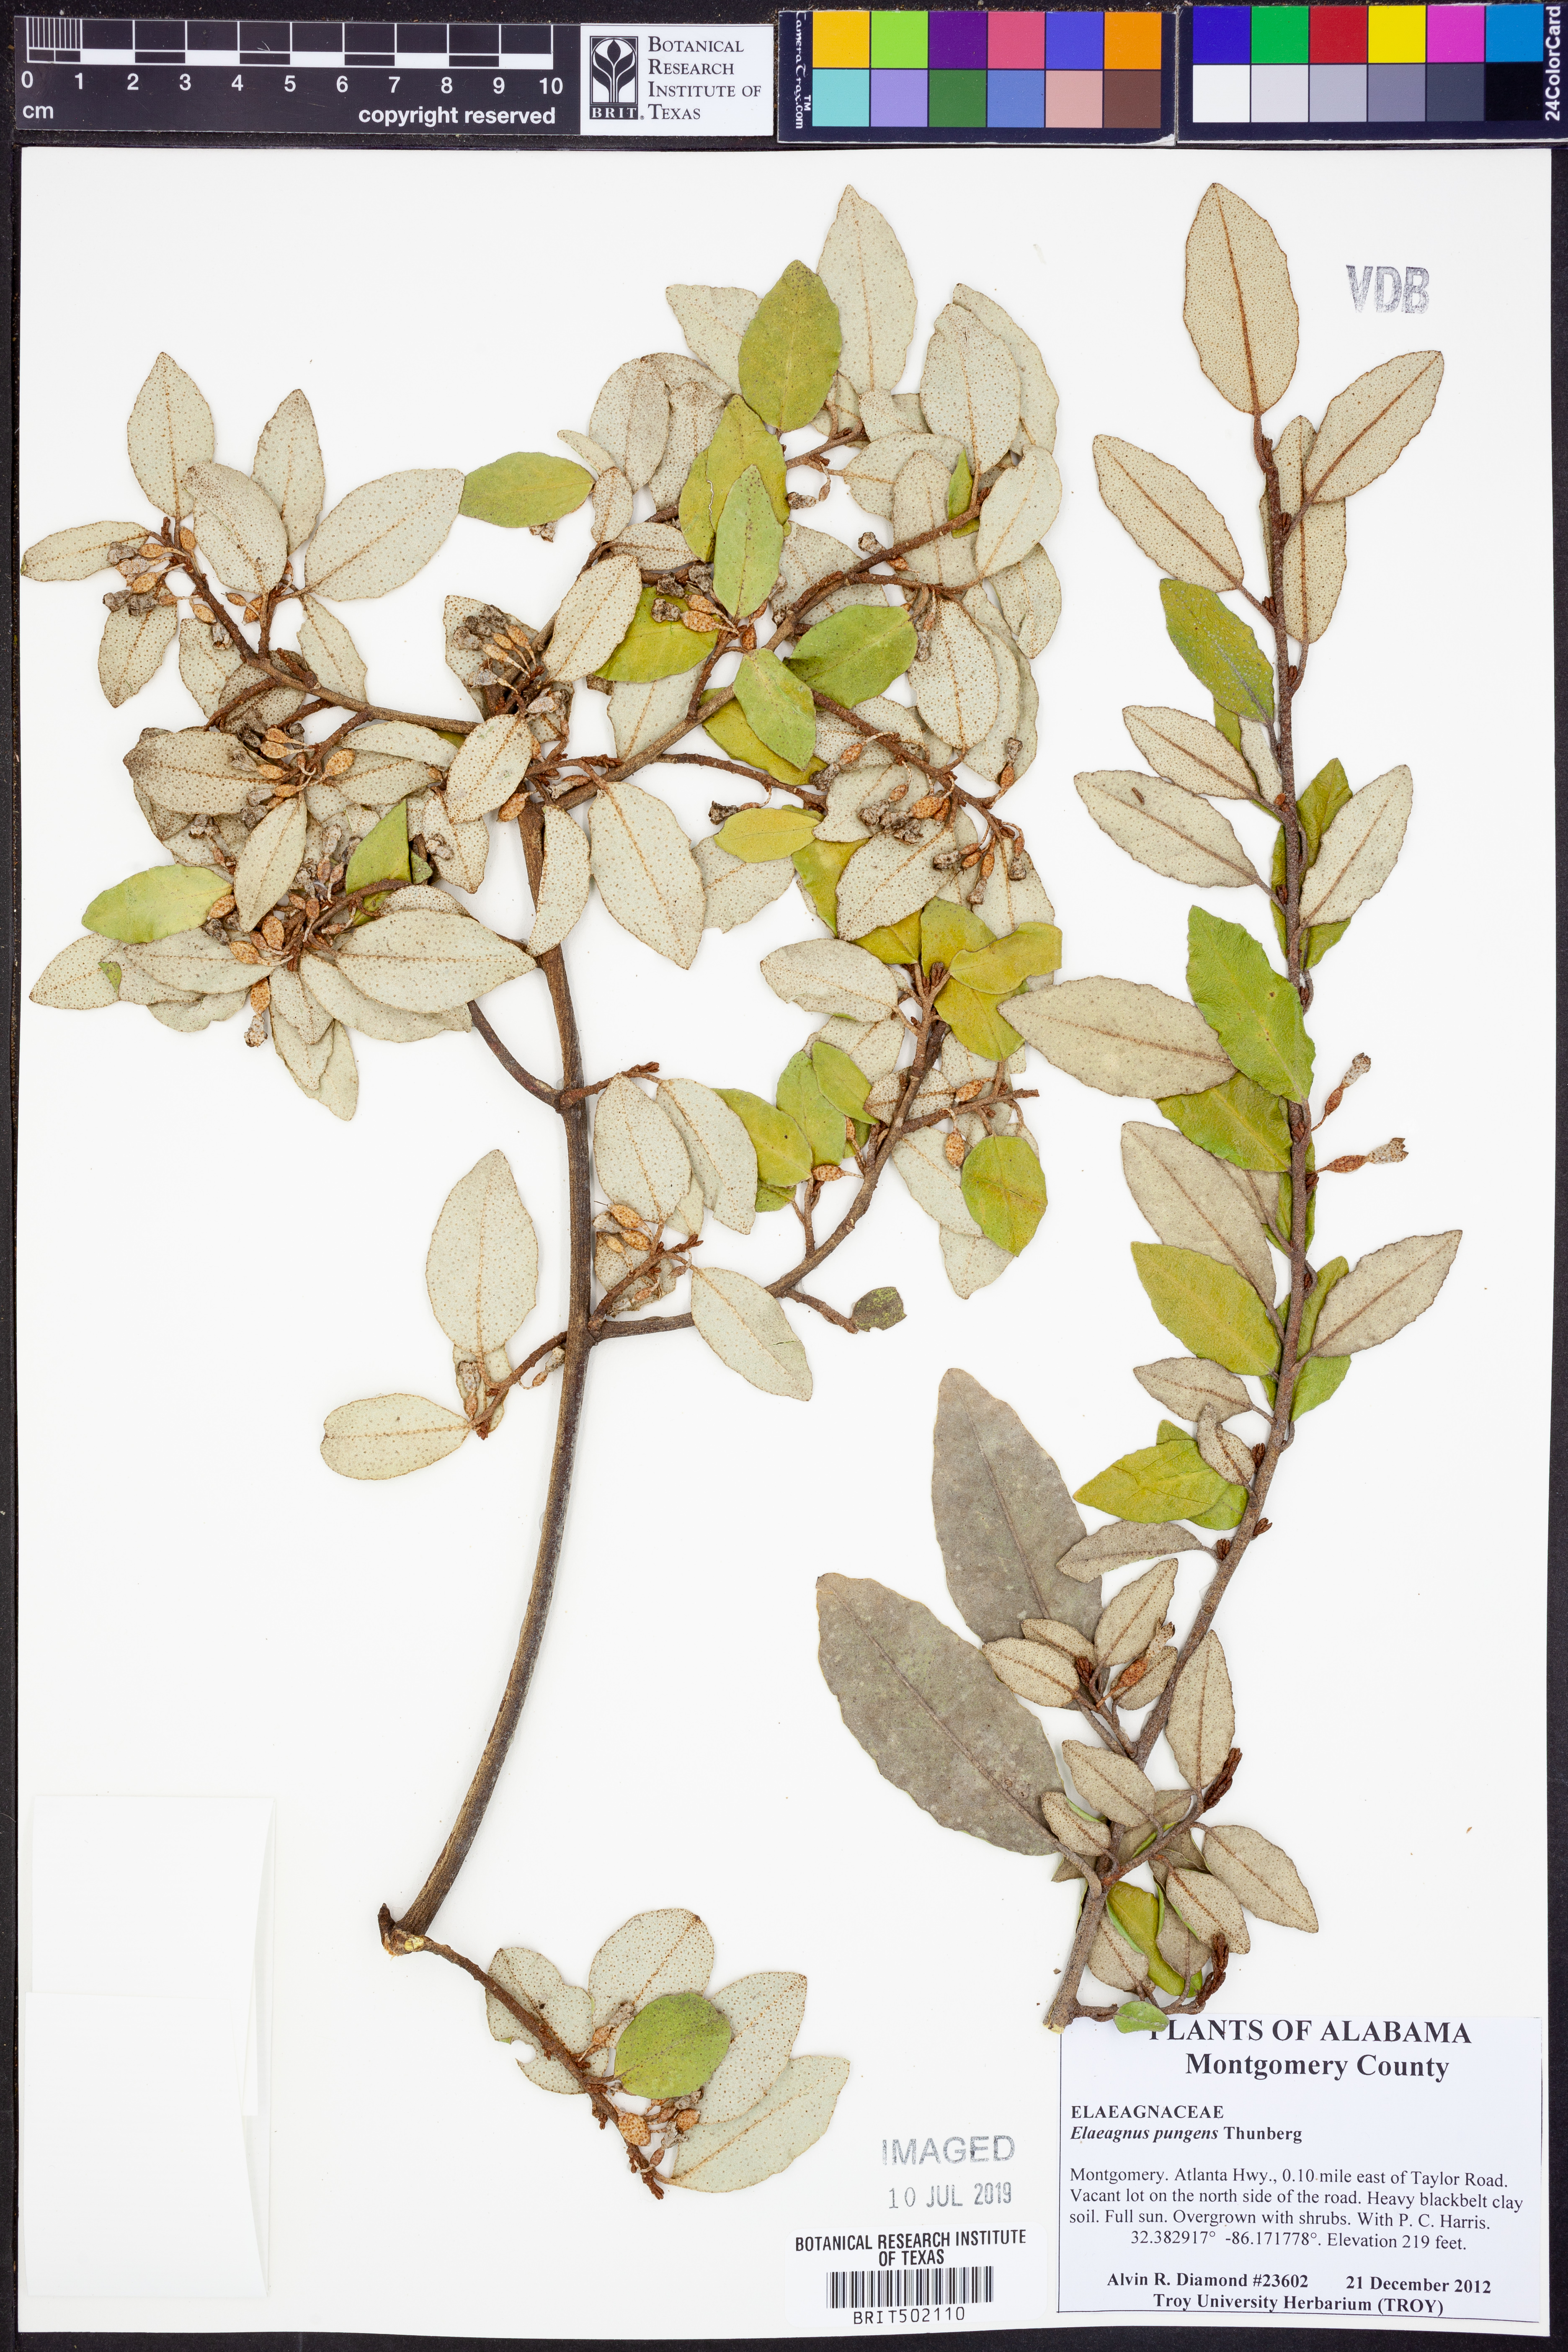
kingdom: Plantae
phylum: Tracheophyta
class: Magnoliopsida
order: Rosales
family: Elaeagnaceae
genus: Elaeagnus
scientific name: Elaeagnus pungens
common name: Spiny oleaster
